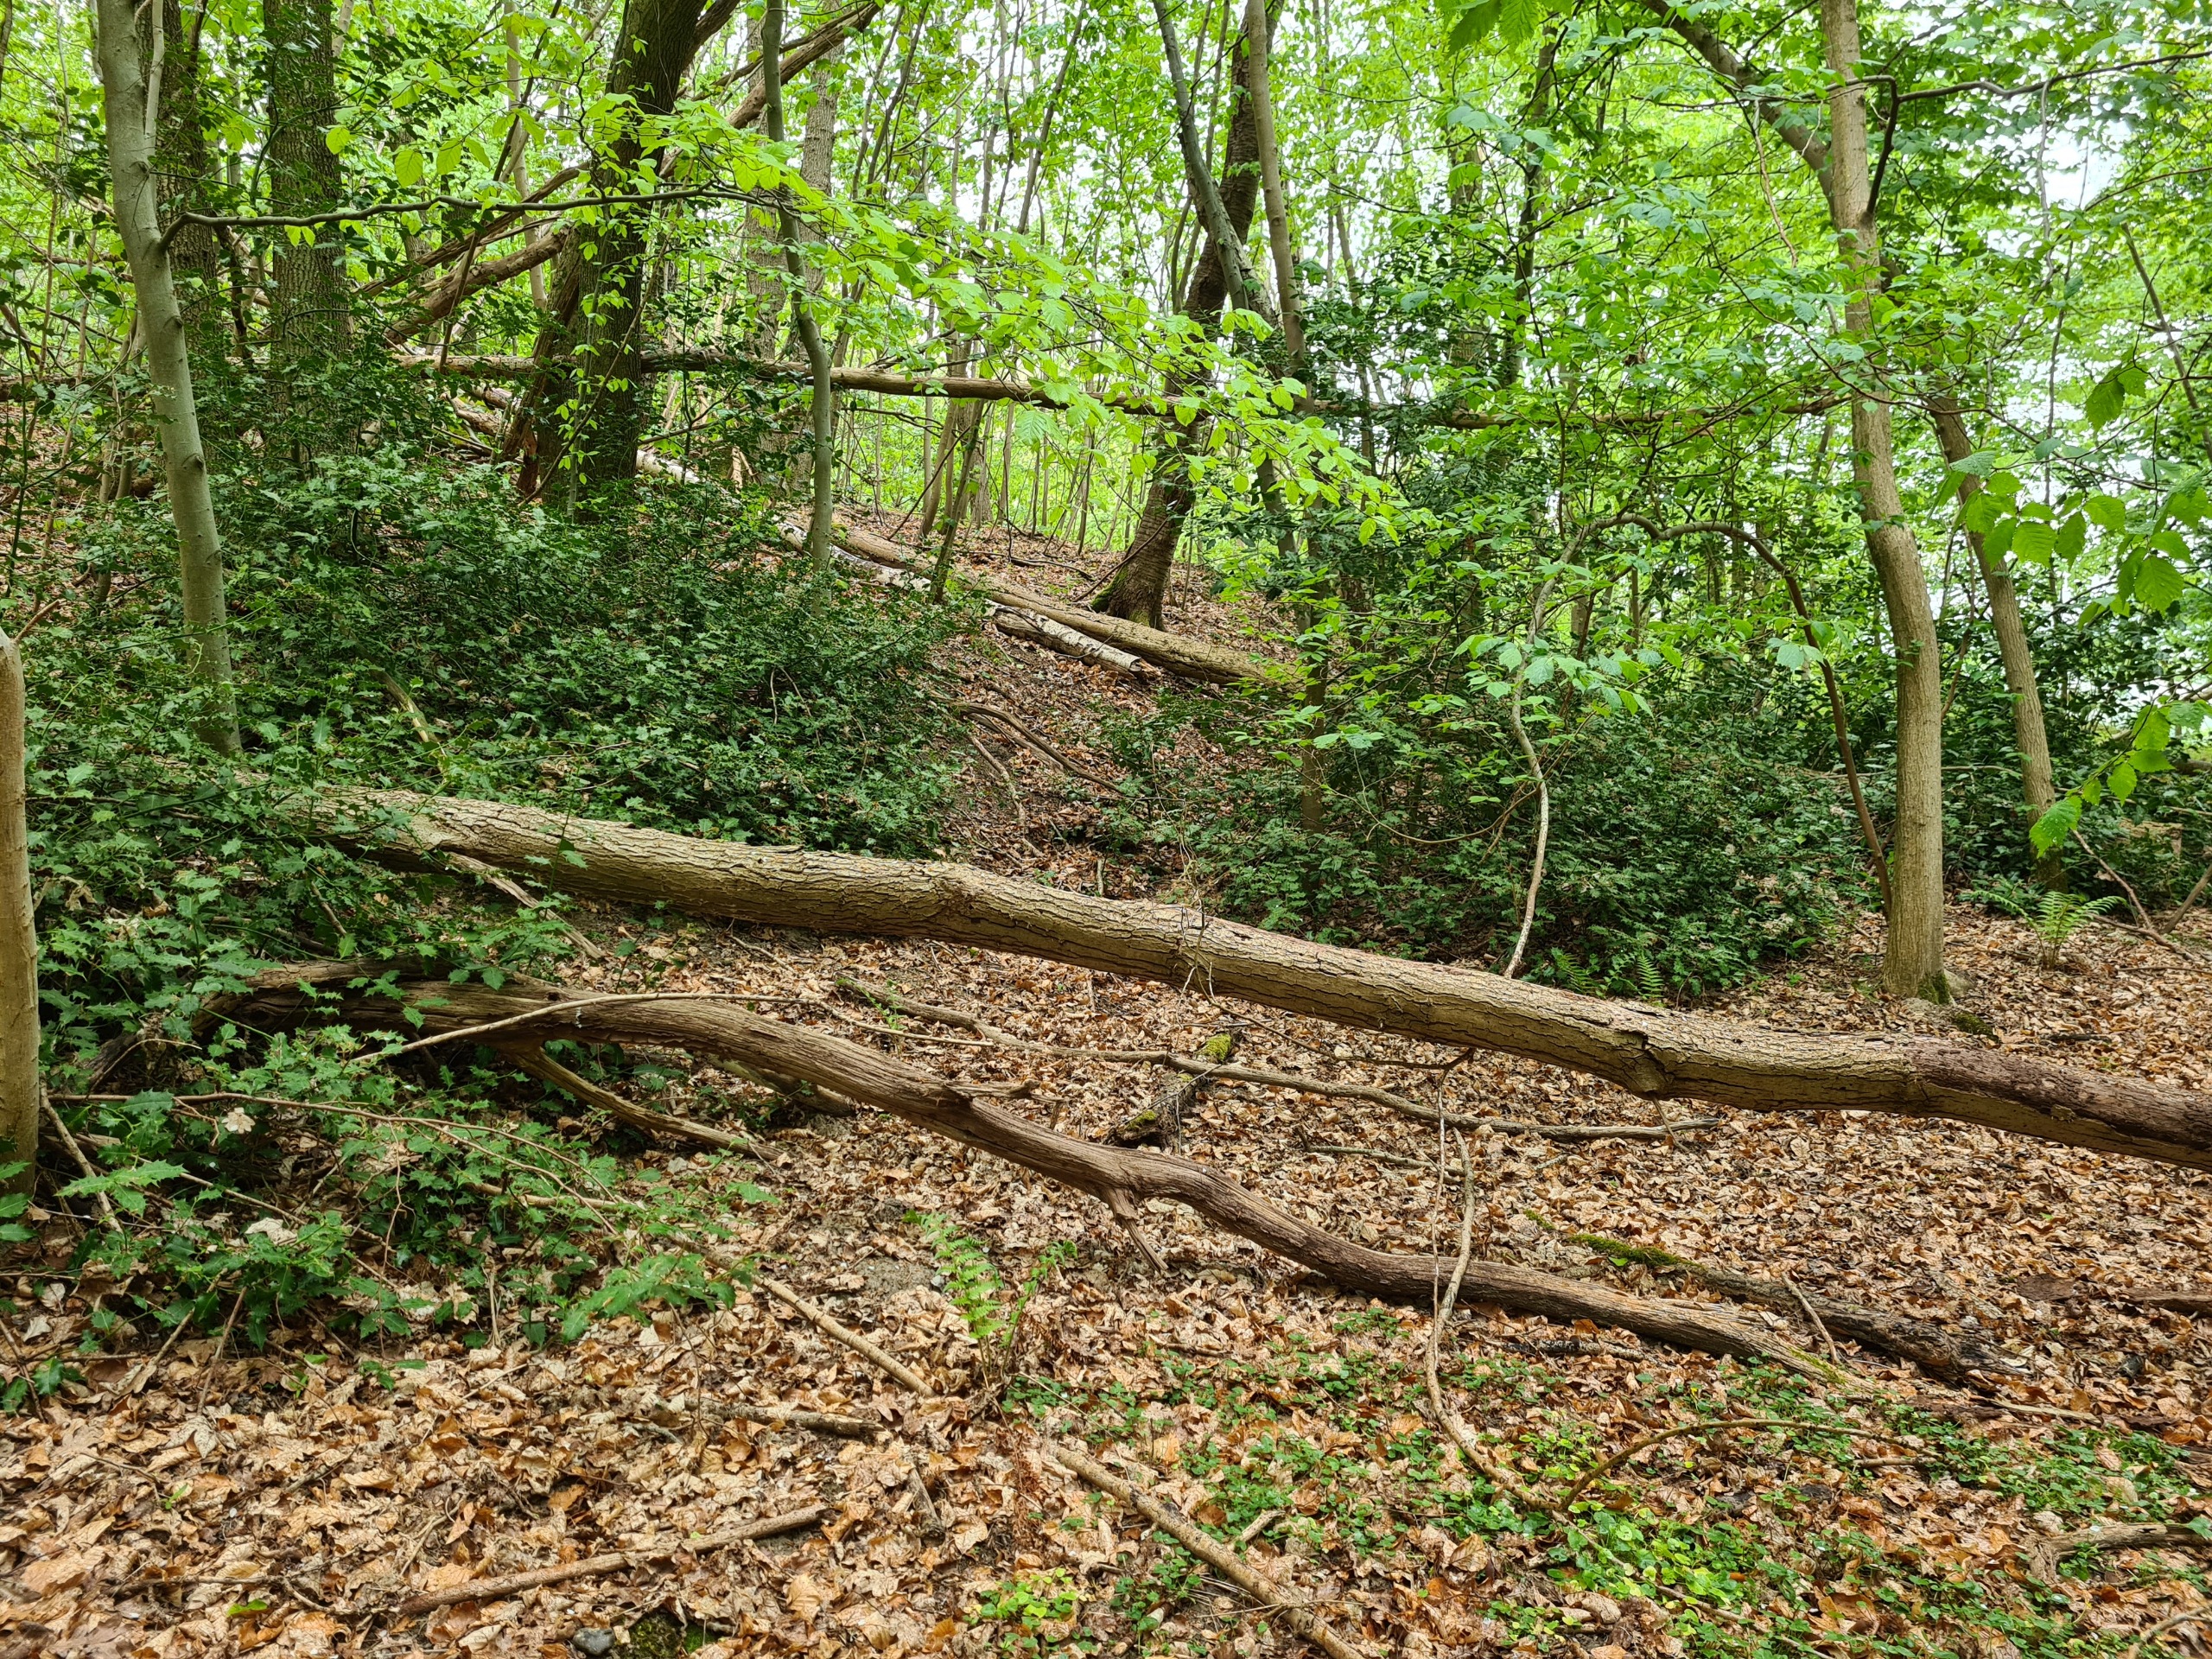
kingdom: Plantae
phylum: Tracheophyta
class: Magnoliopsida
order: Aquifoliales
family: Aquifoliaceae
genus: Ilex
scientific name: Ilex aquifolium
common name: Kristtorn
